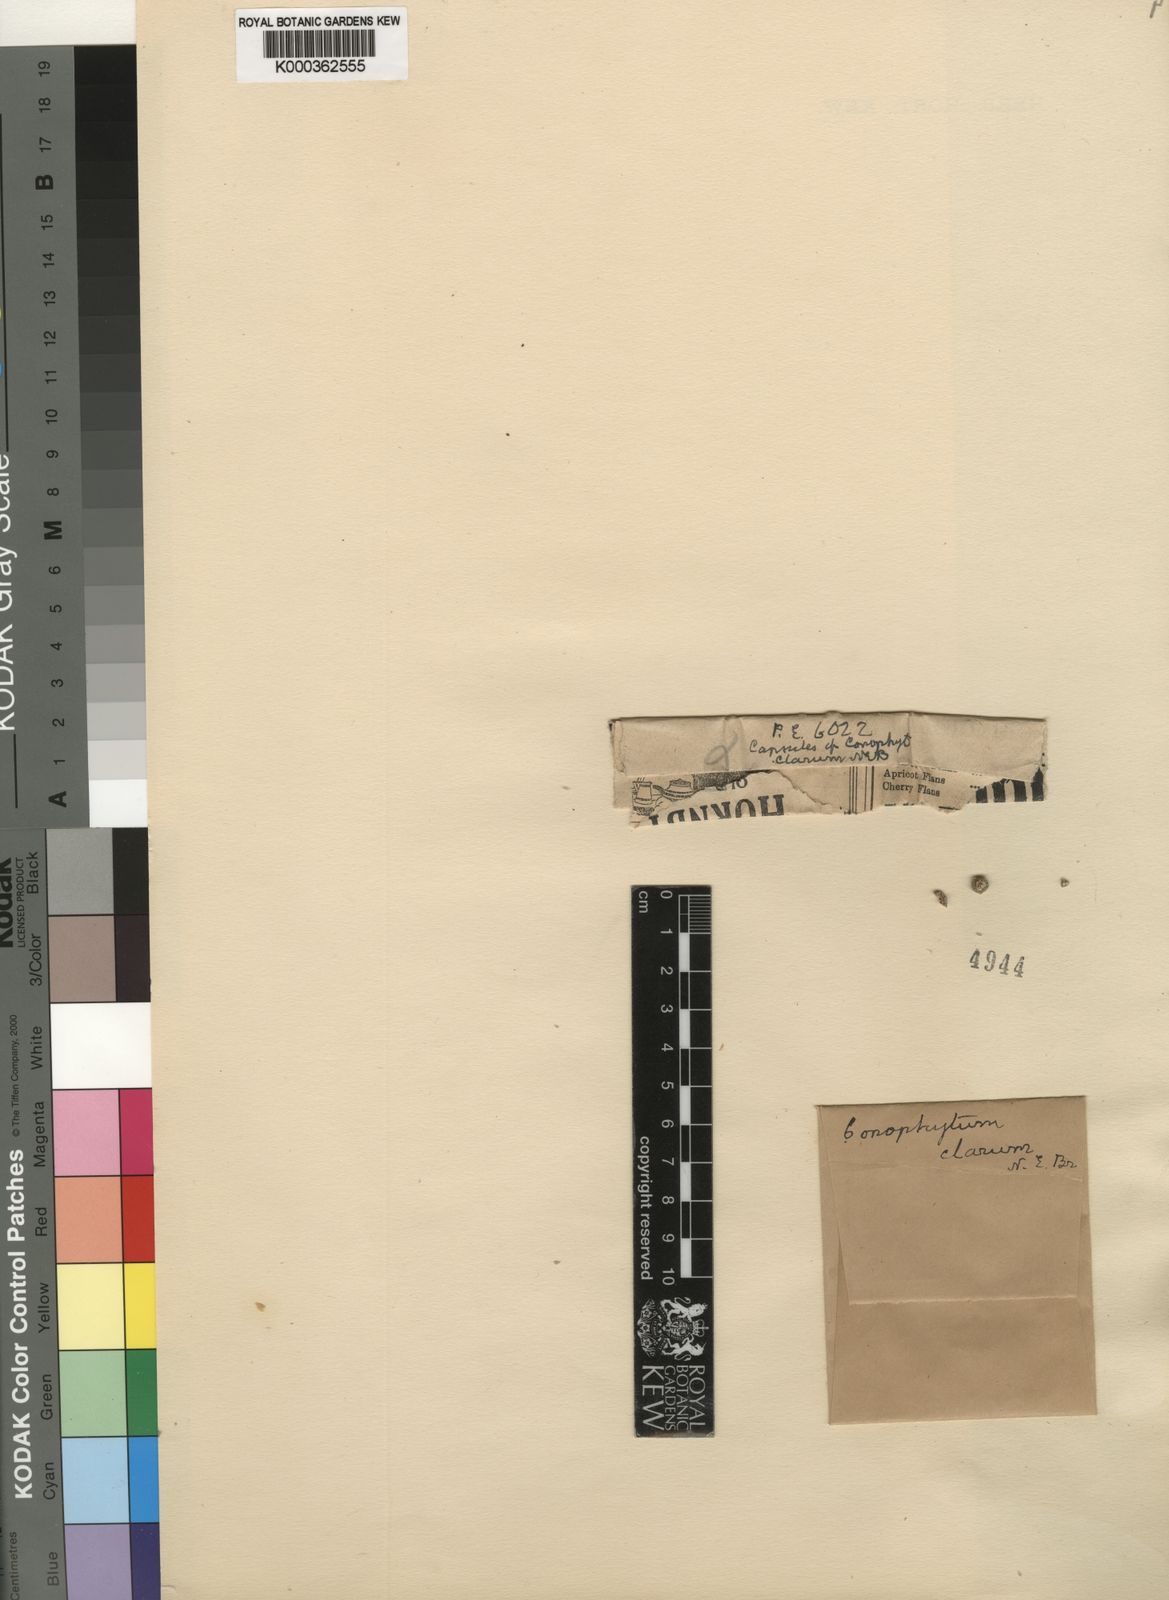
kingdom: Plantae
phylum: Tracheophyta
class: Magnoliopsida
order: Caryophyllales
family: Aizoaceae
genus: Conophytum
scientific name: Conophytum uviforme
